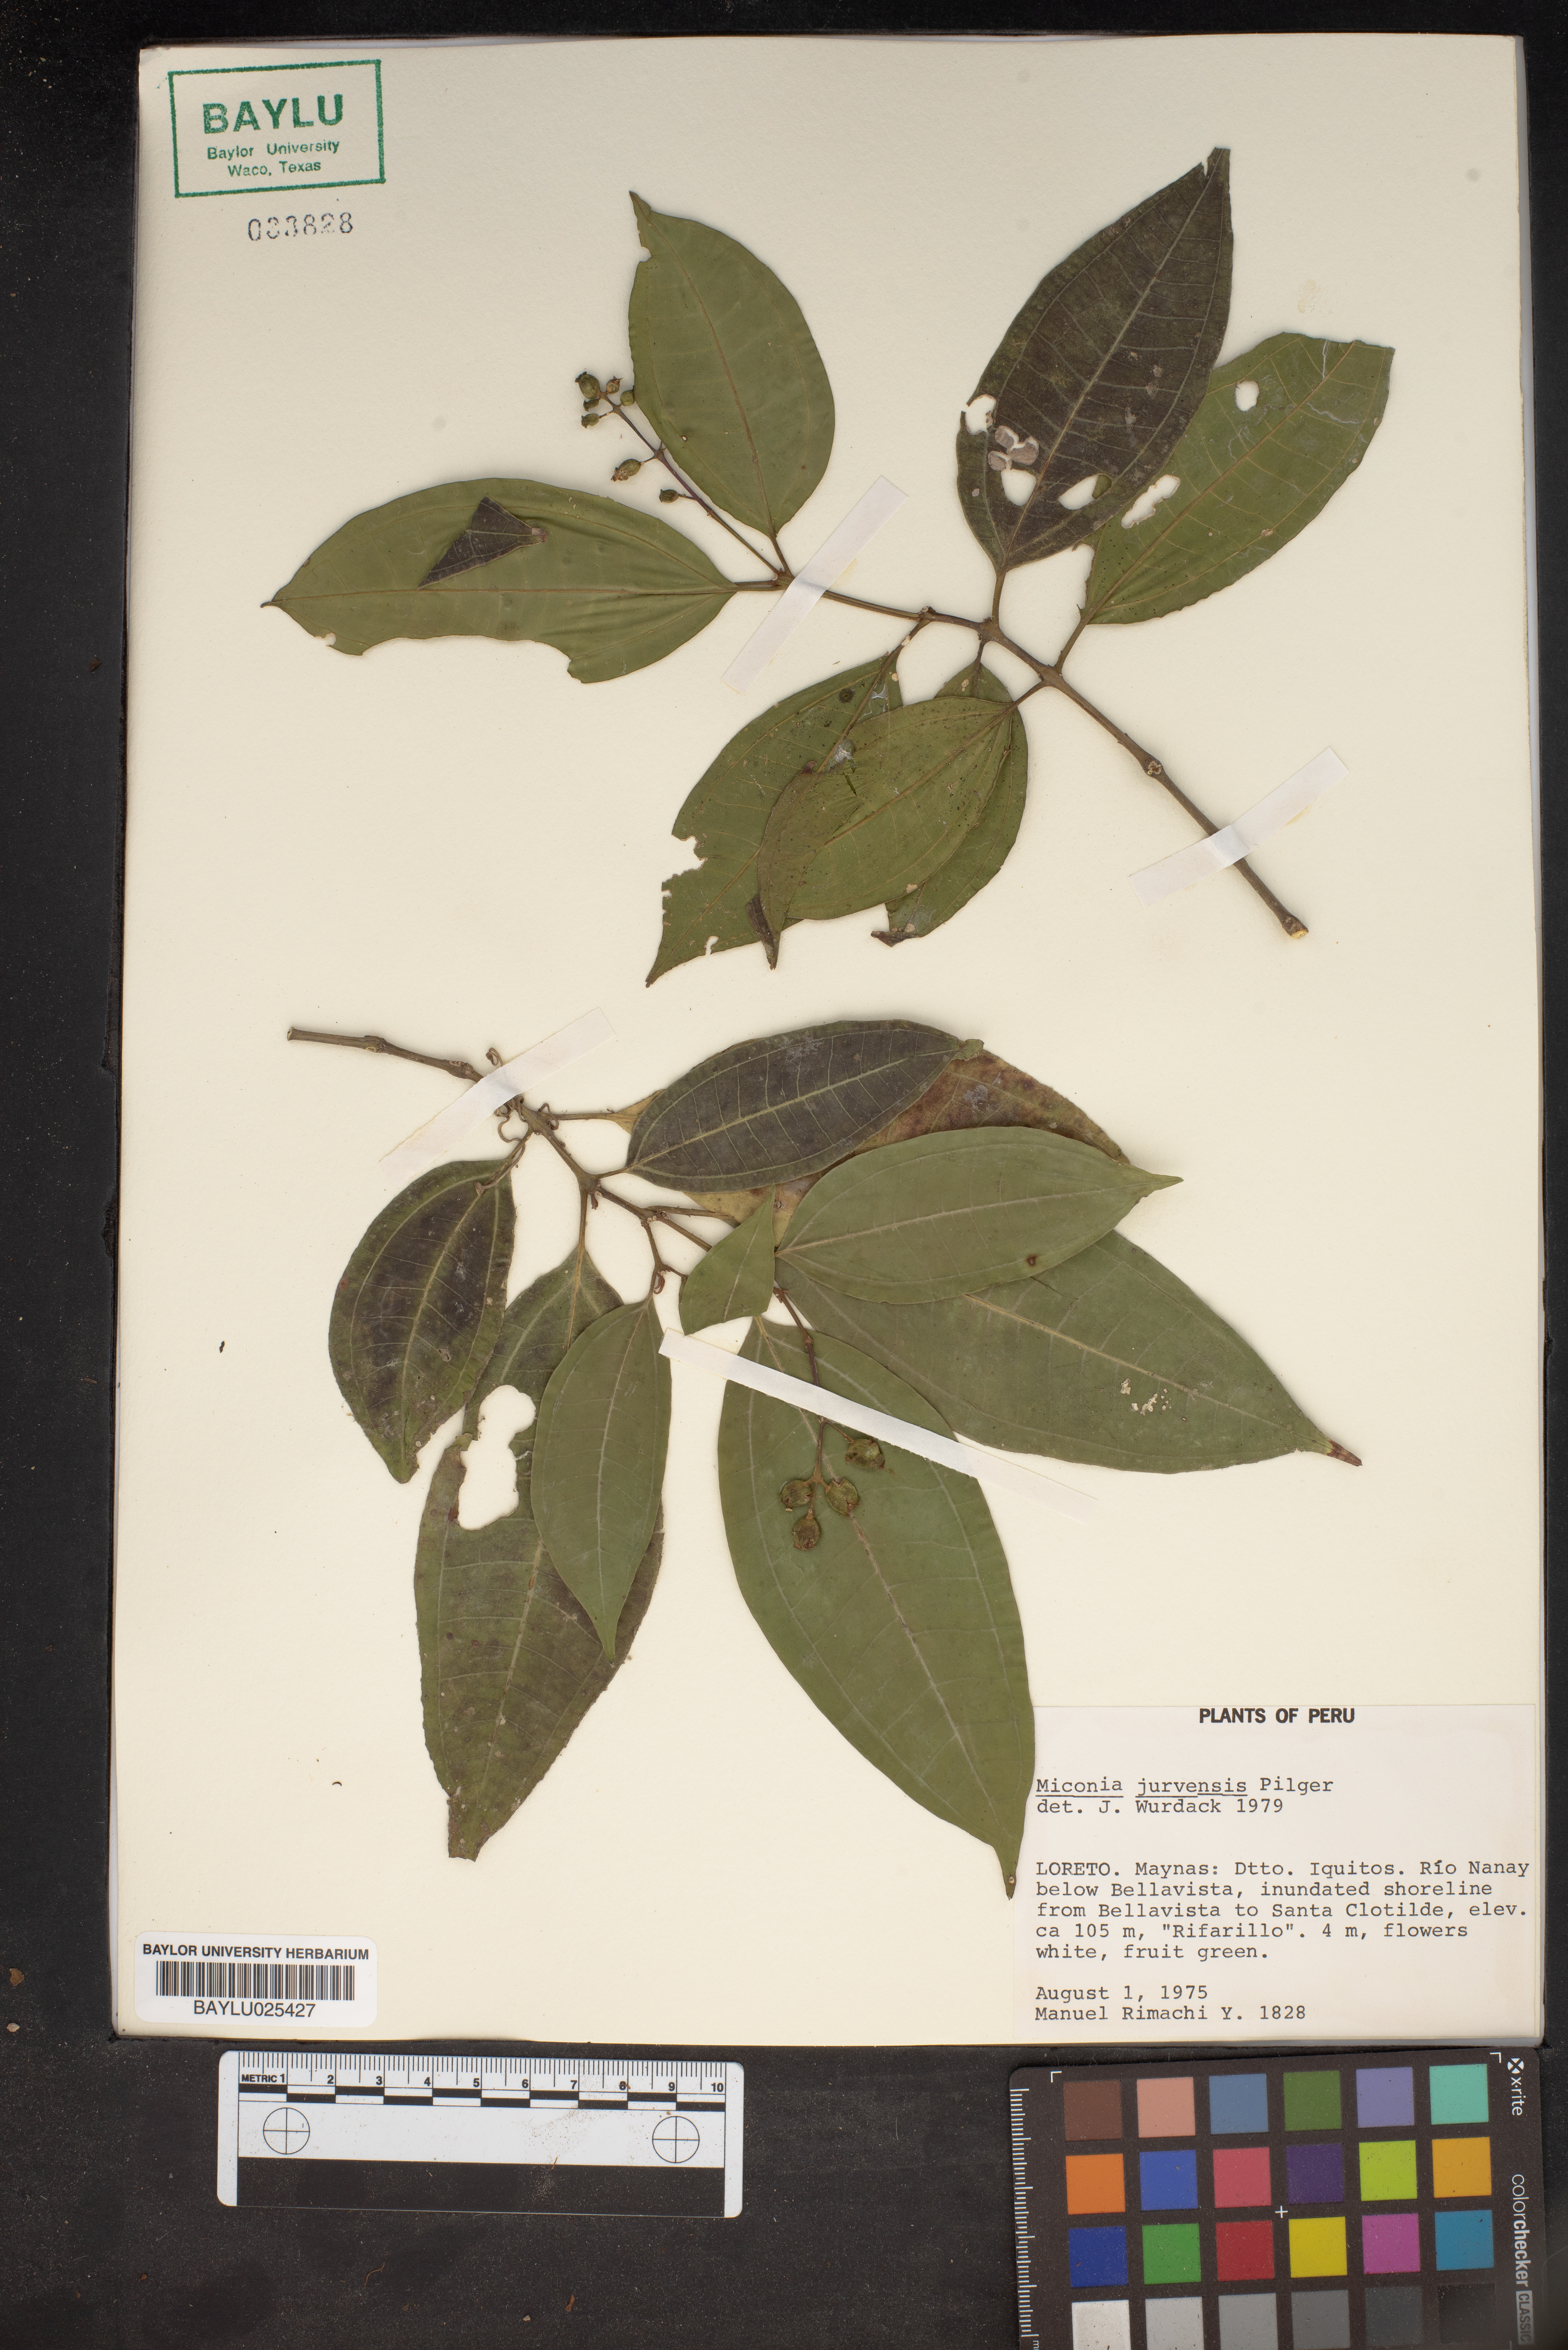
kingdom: Plantae
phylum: Tracheophyta
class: Magnoliopsida
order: Myrtales
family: Melastomataceae
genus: Miconia
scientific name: Miconia juruensis
